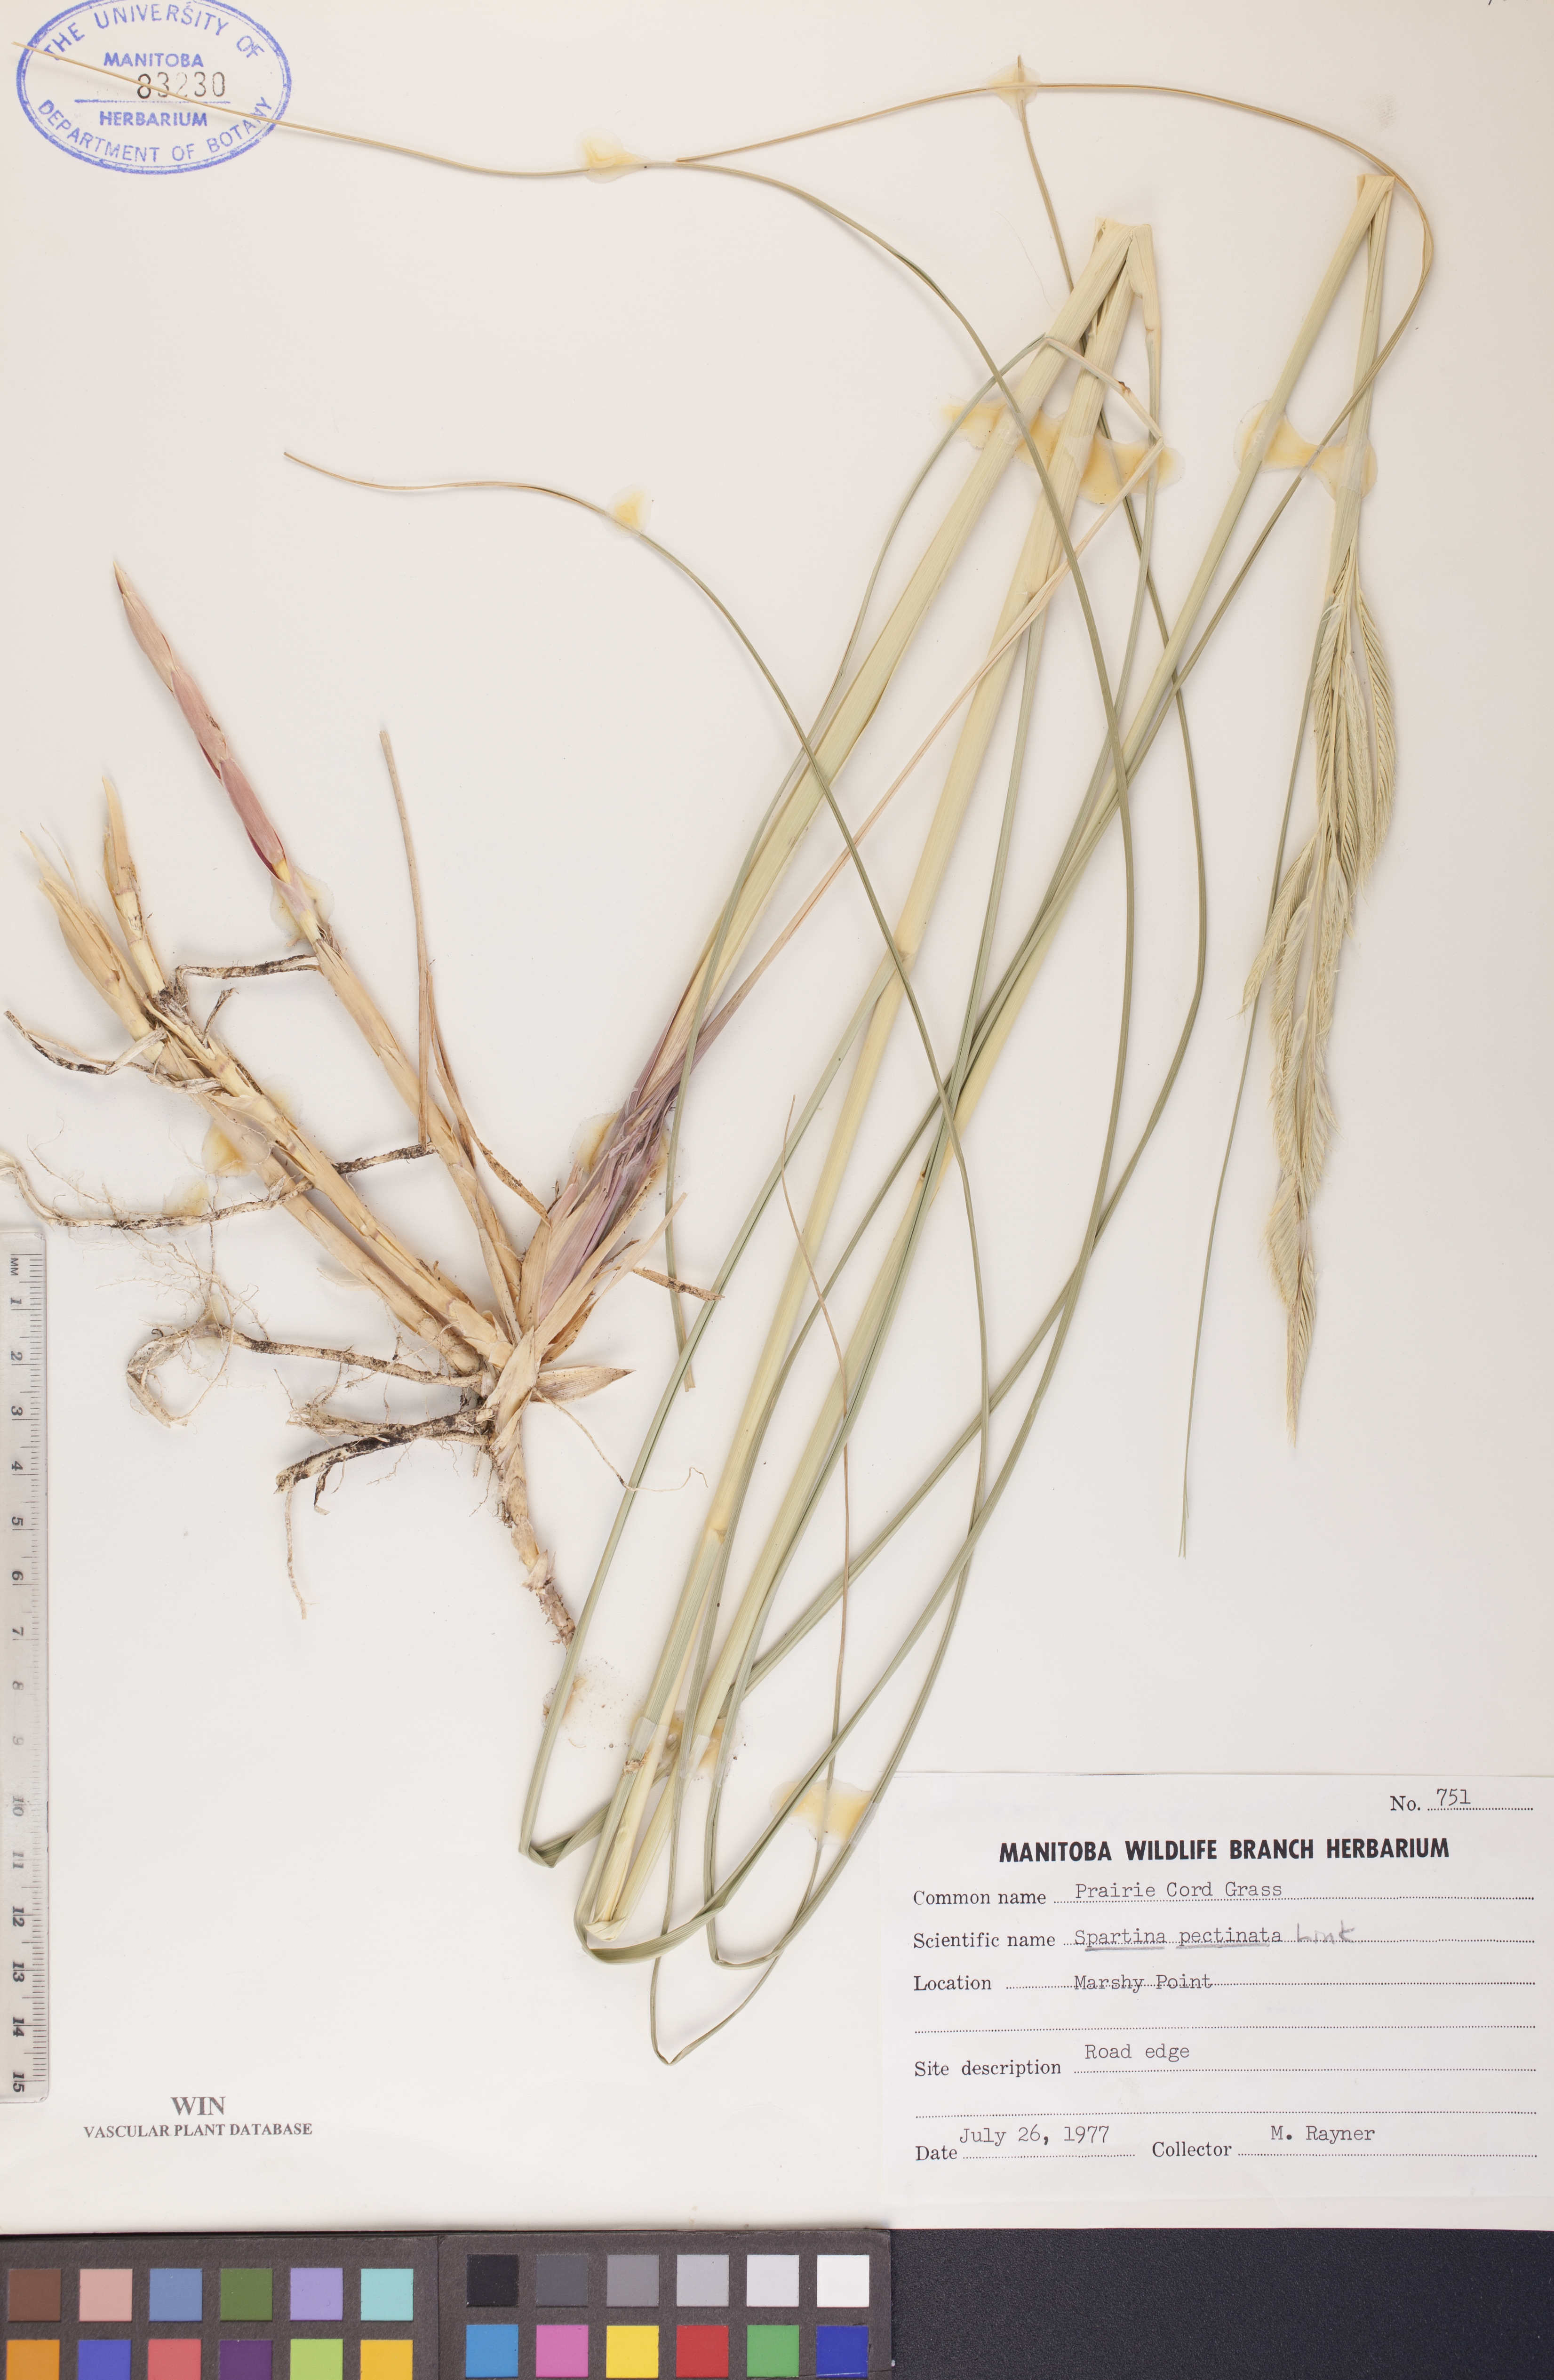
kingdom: Plantae
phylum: Tracheophyta
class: Liliopsida
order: Poales
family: Poaceae
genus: Sporobolus
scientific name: Sporobolus michauxianus
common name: Freshwater cordgrass
